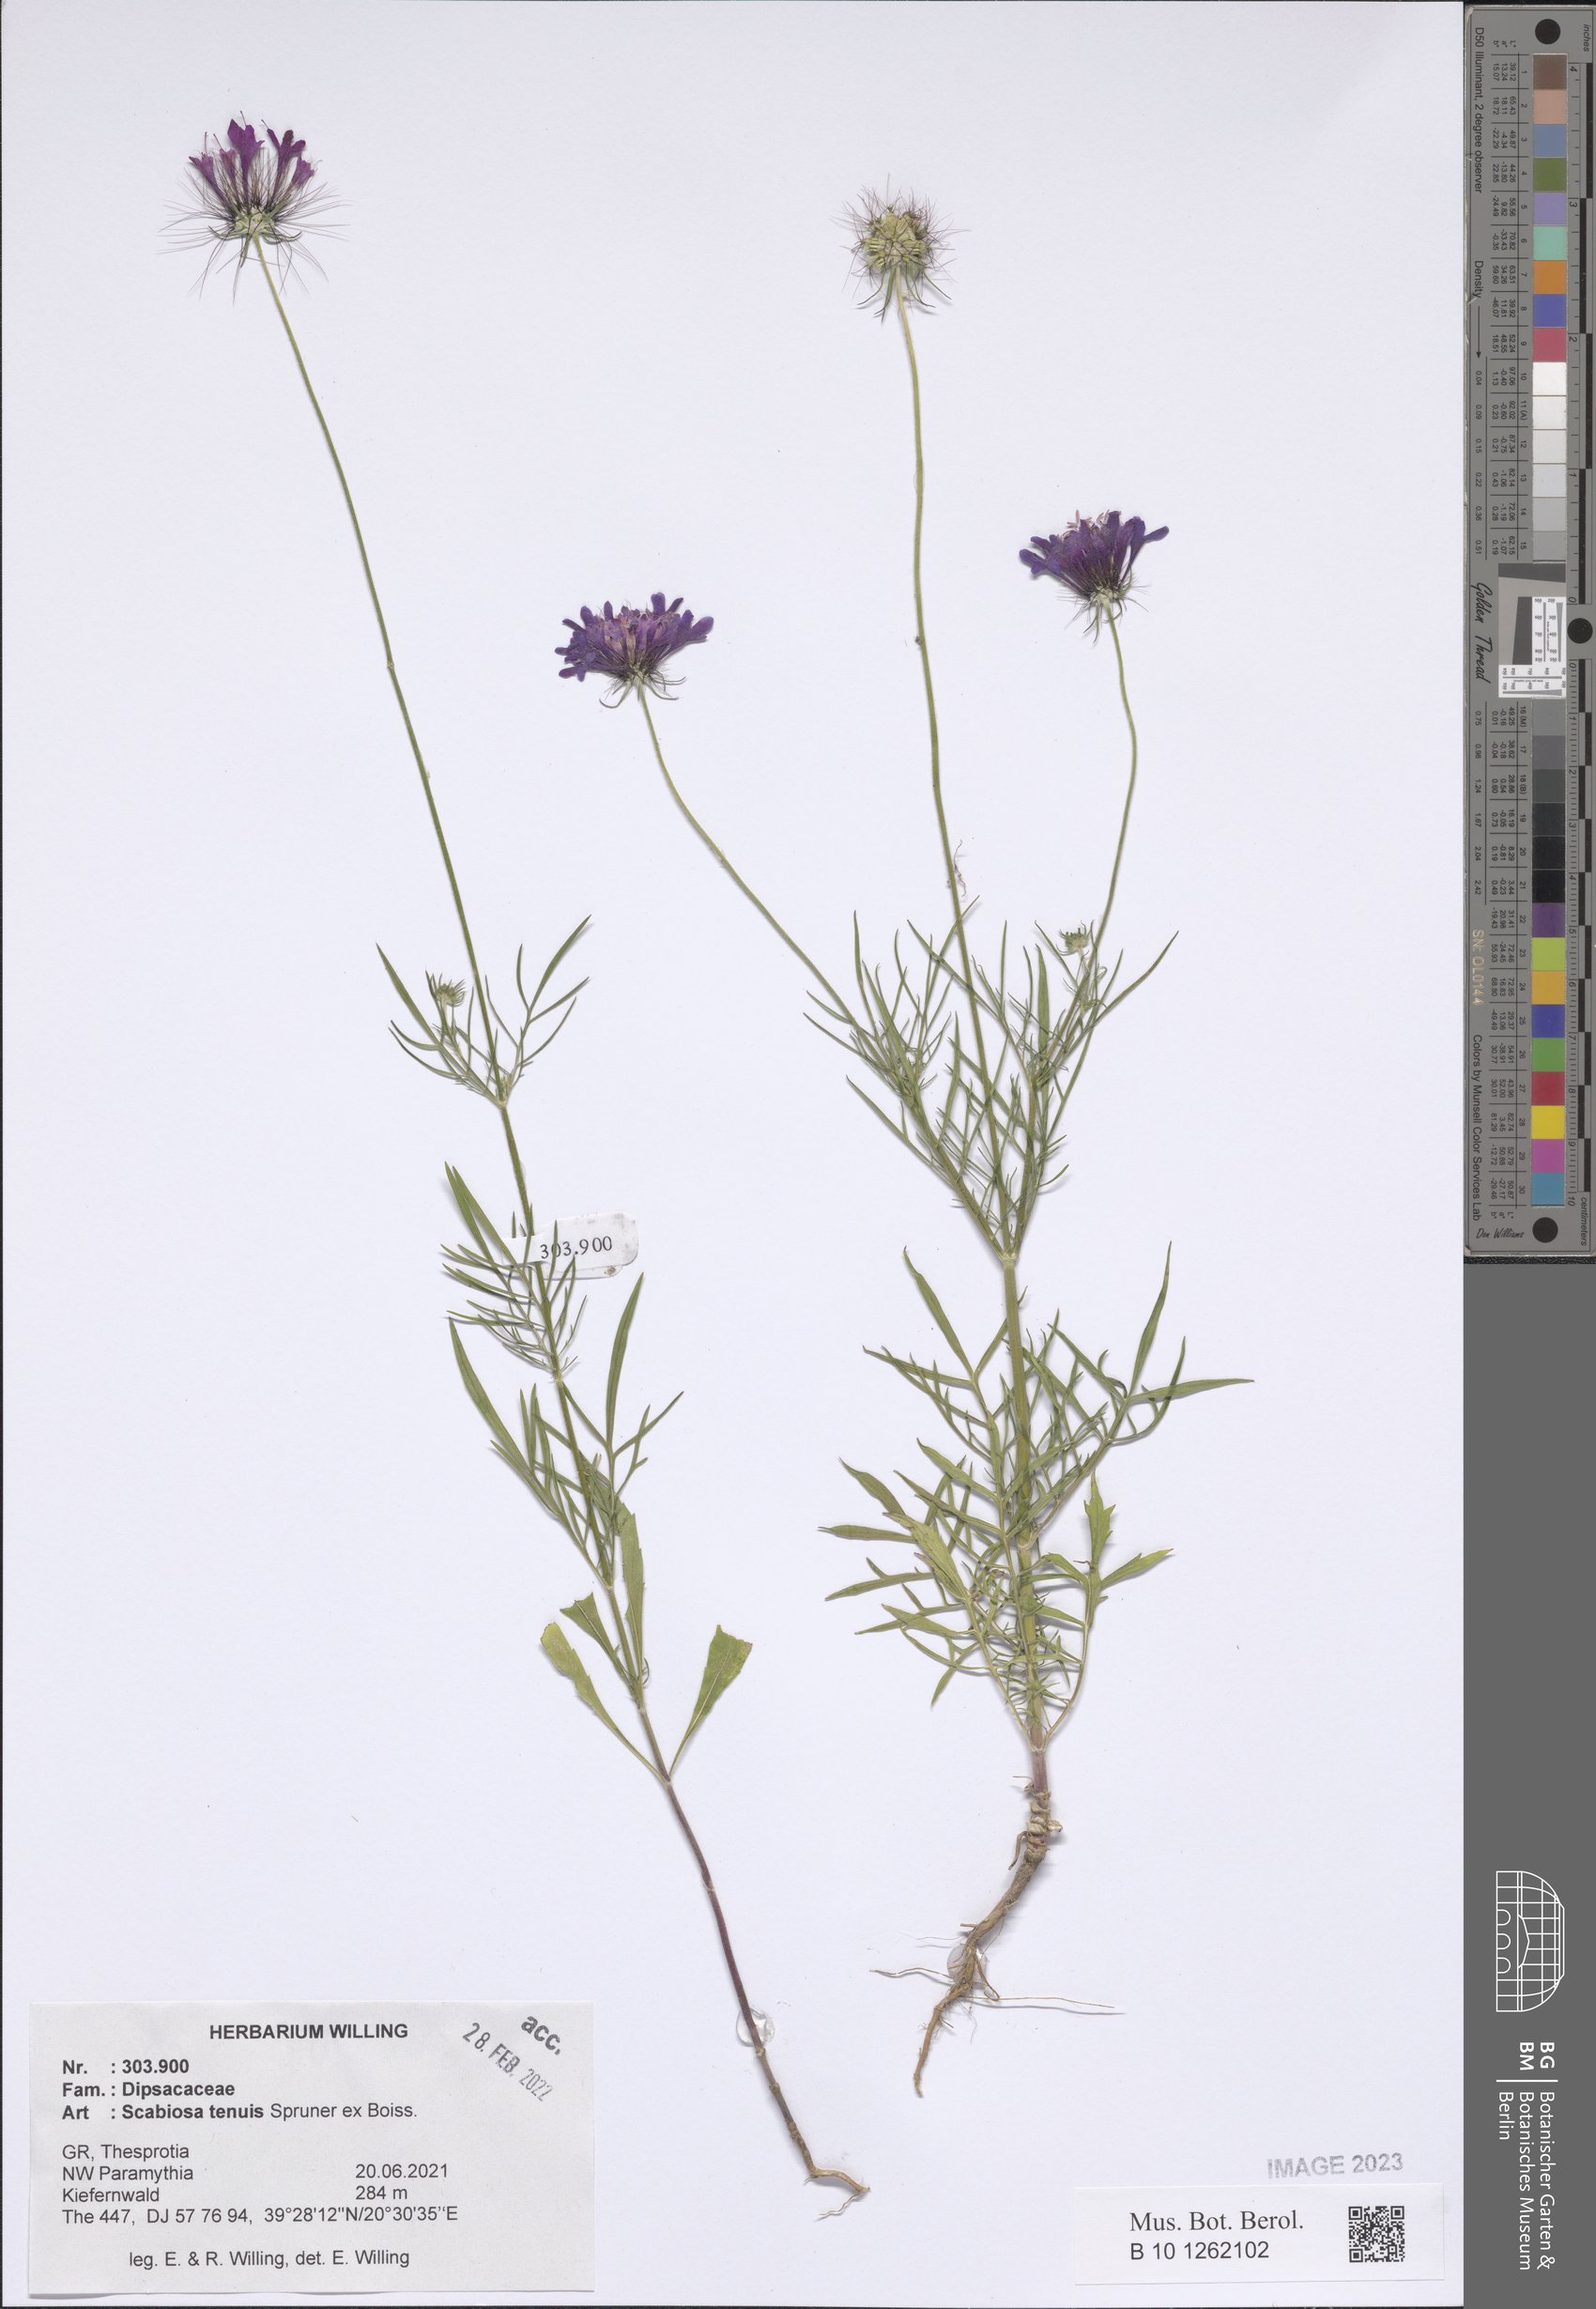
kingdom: Plantae
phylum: Tracheophyta
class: Magnoliopsida
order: Dipsacales
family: Caprifoliaceae
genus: Scabiosa
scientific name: Scabiosa tenuis
